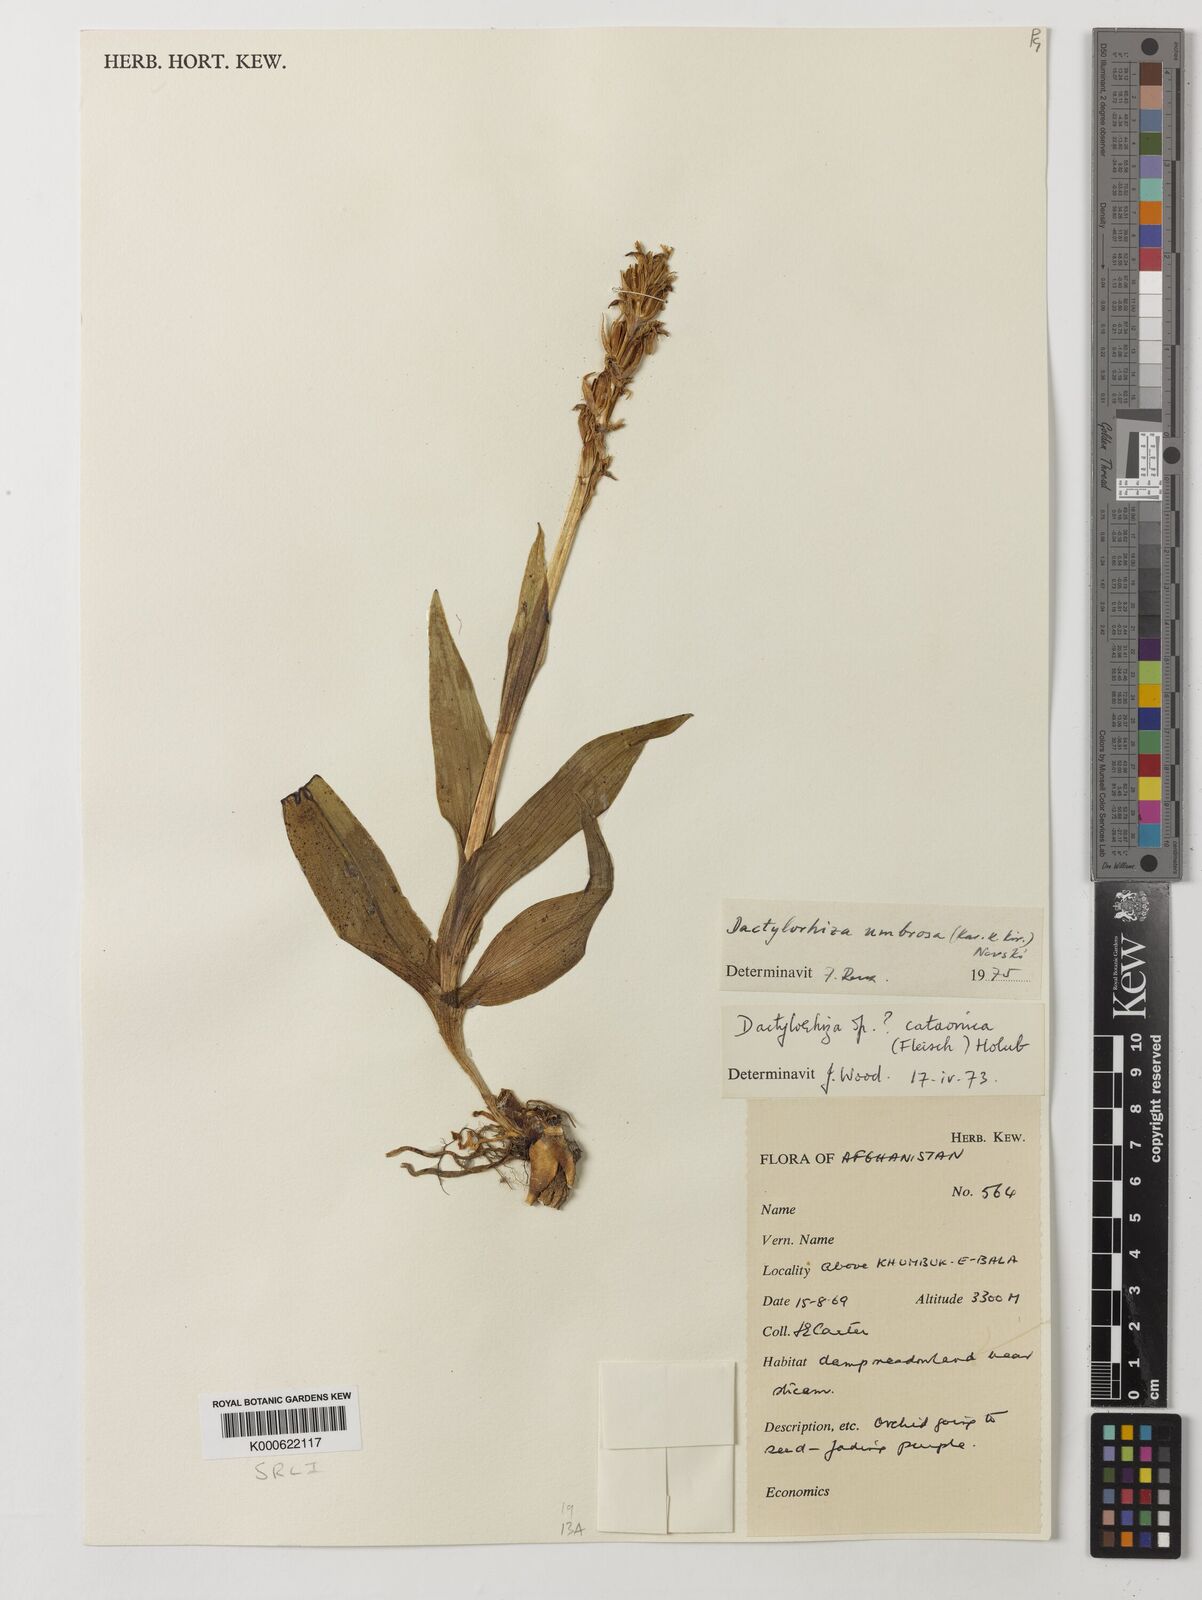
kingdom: Plantae
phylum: Tracheophyta
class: Liliopsida
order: Asparagales
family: Orchidaceae
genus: Dactylorhiza
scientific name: Dactylorhiza
